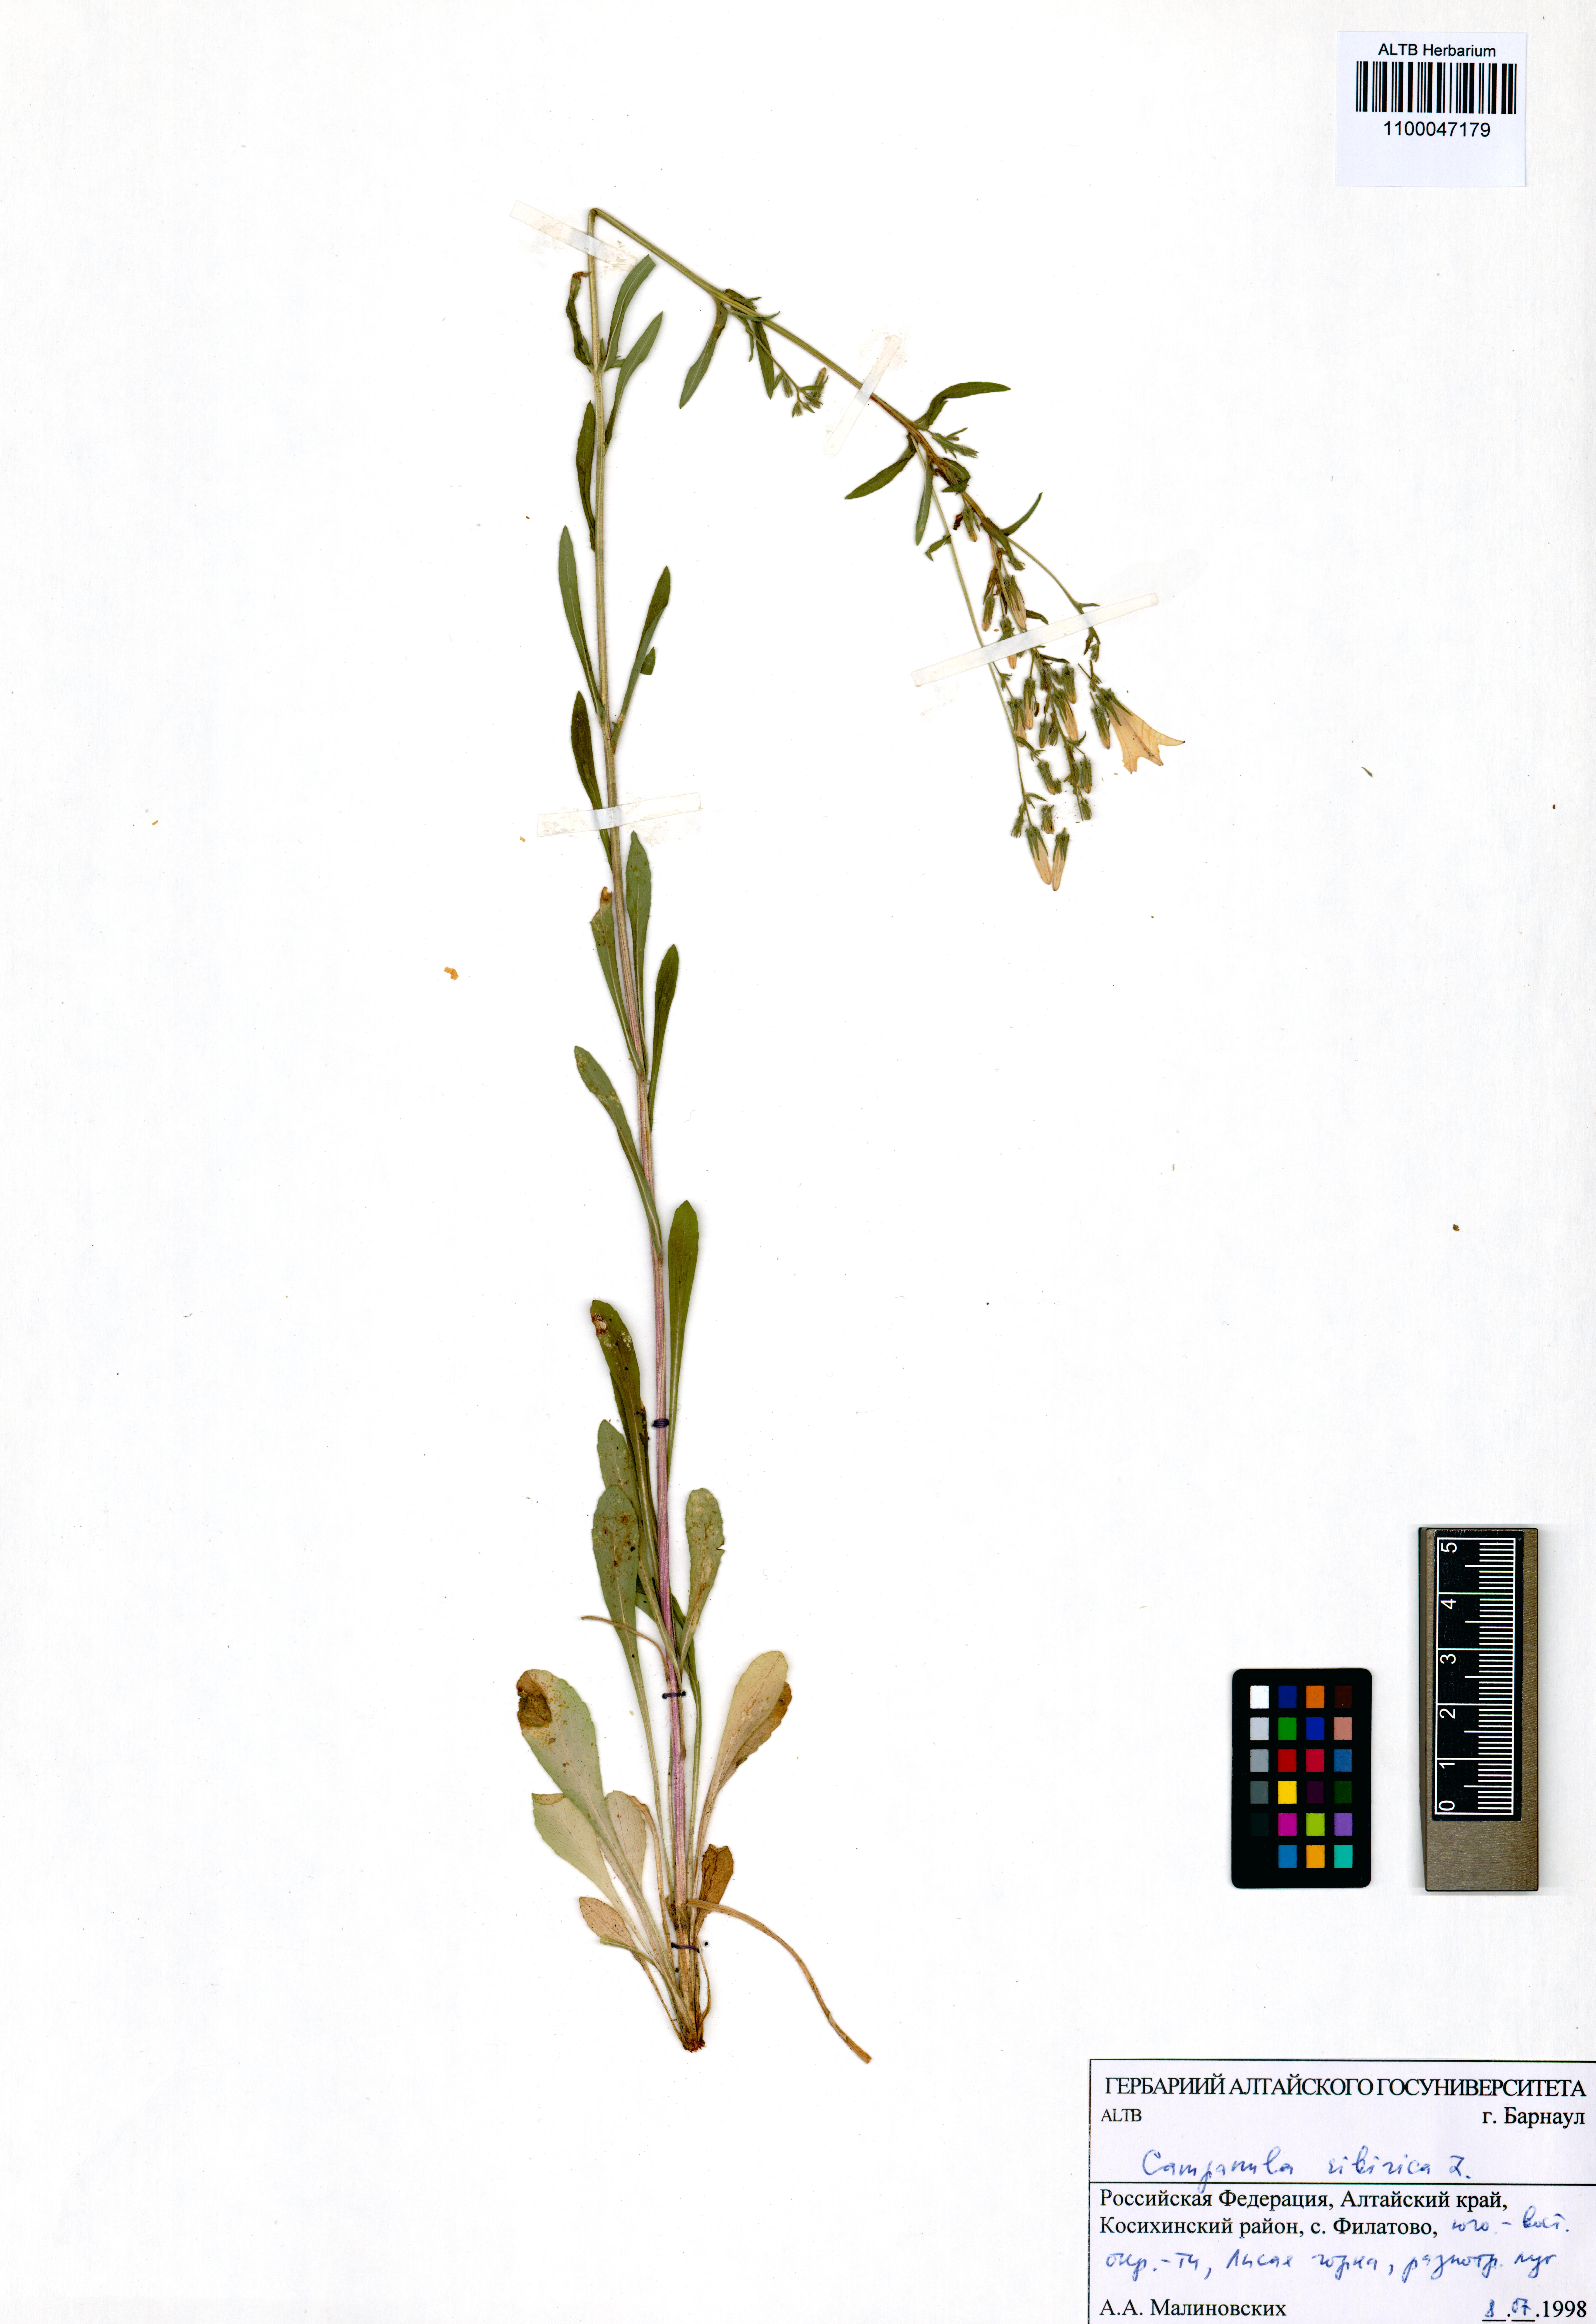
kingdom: Plantae
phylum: Tracheophyta
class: Magnoliopsida
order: Asterales
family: Campanulaceae
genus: Campanula
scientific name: Campanula sibirica
